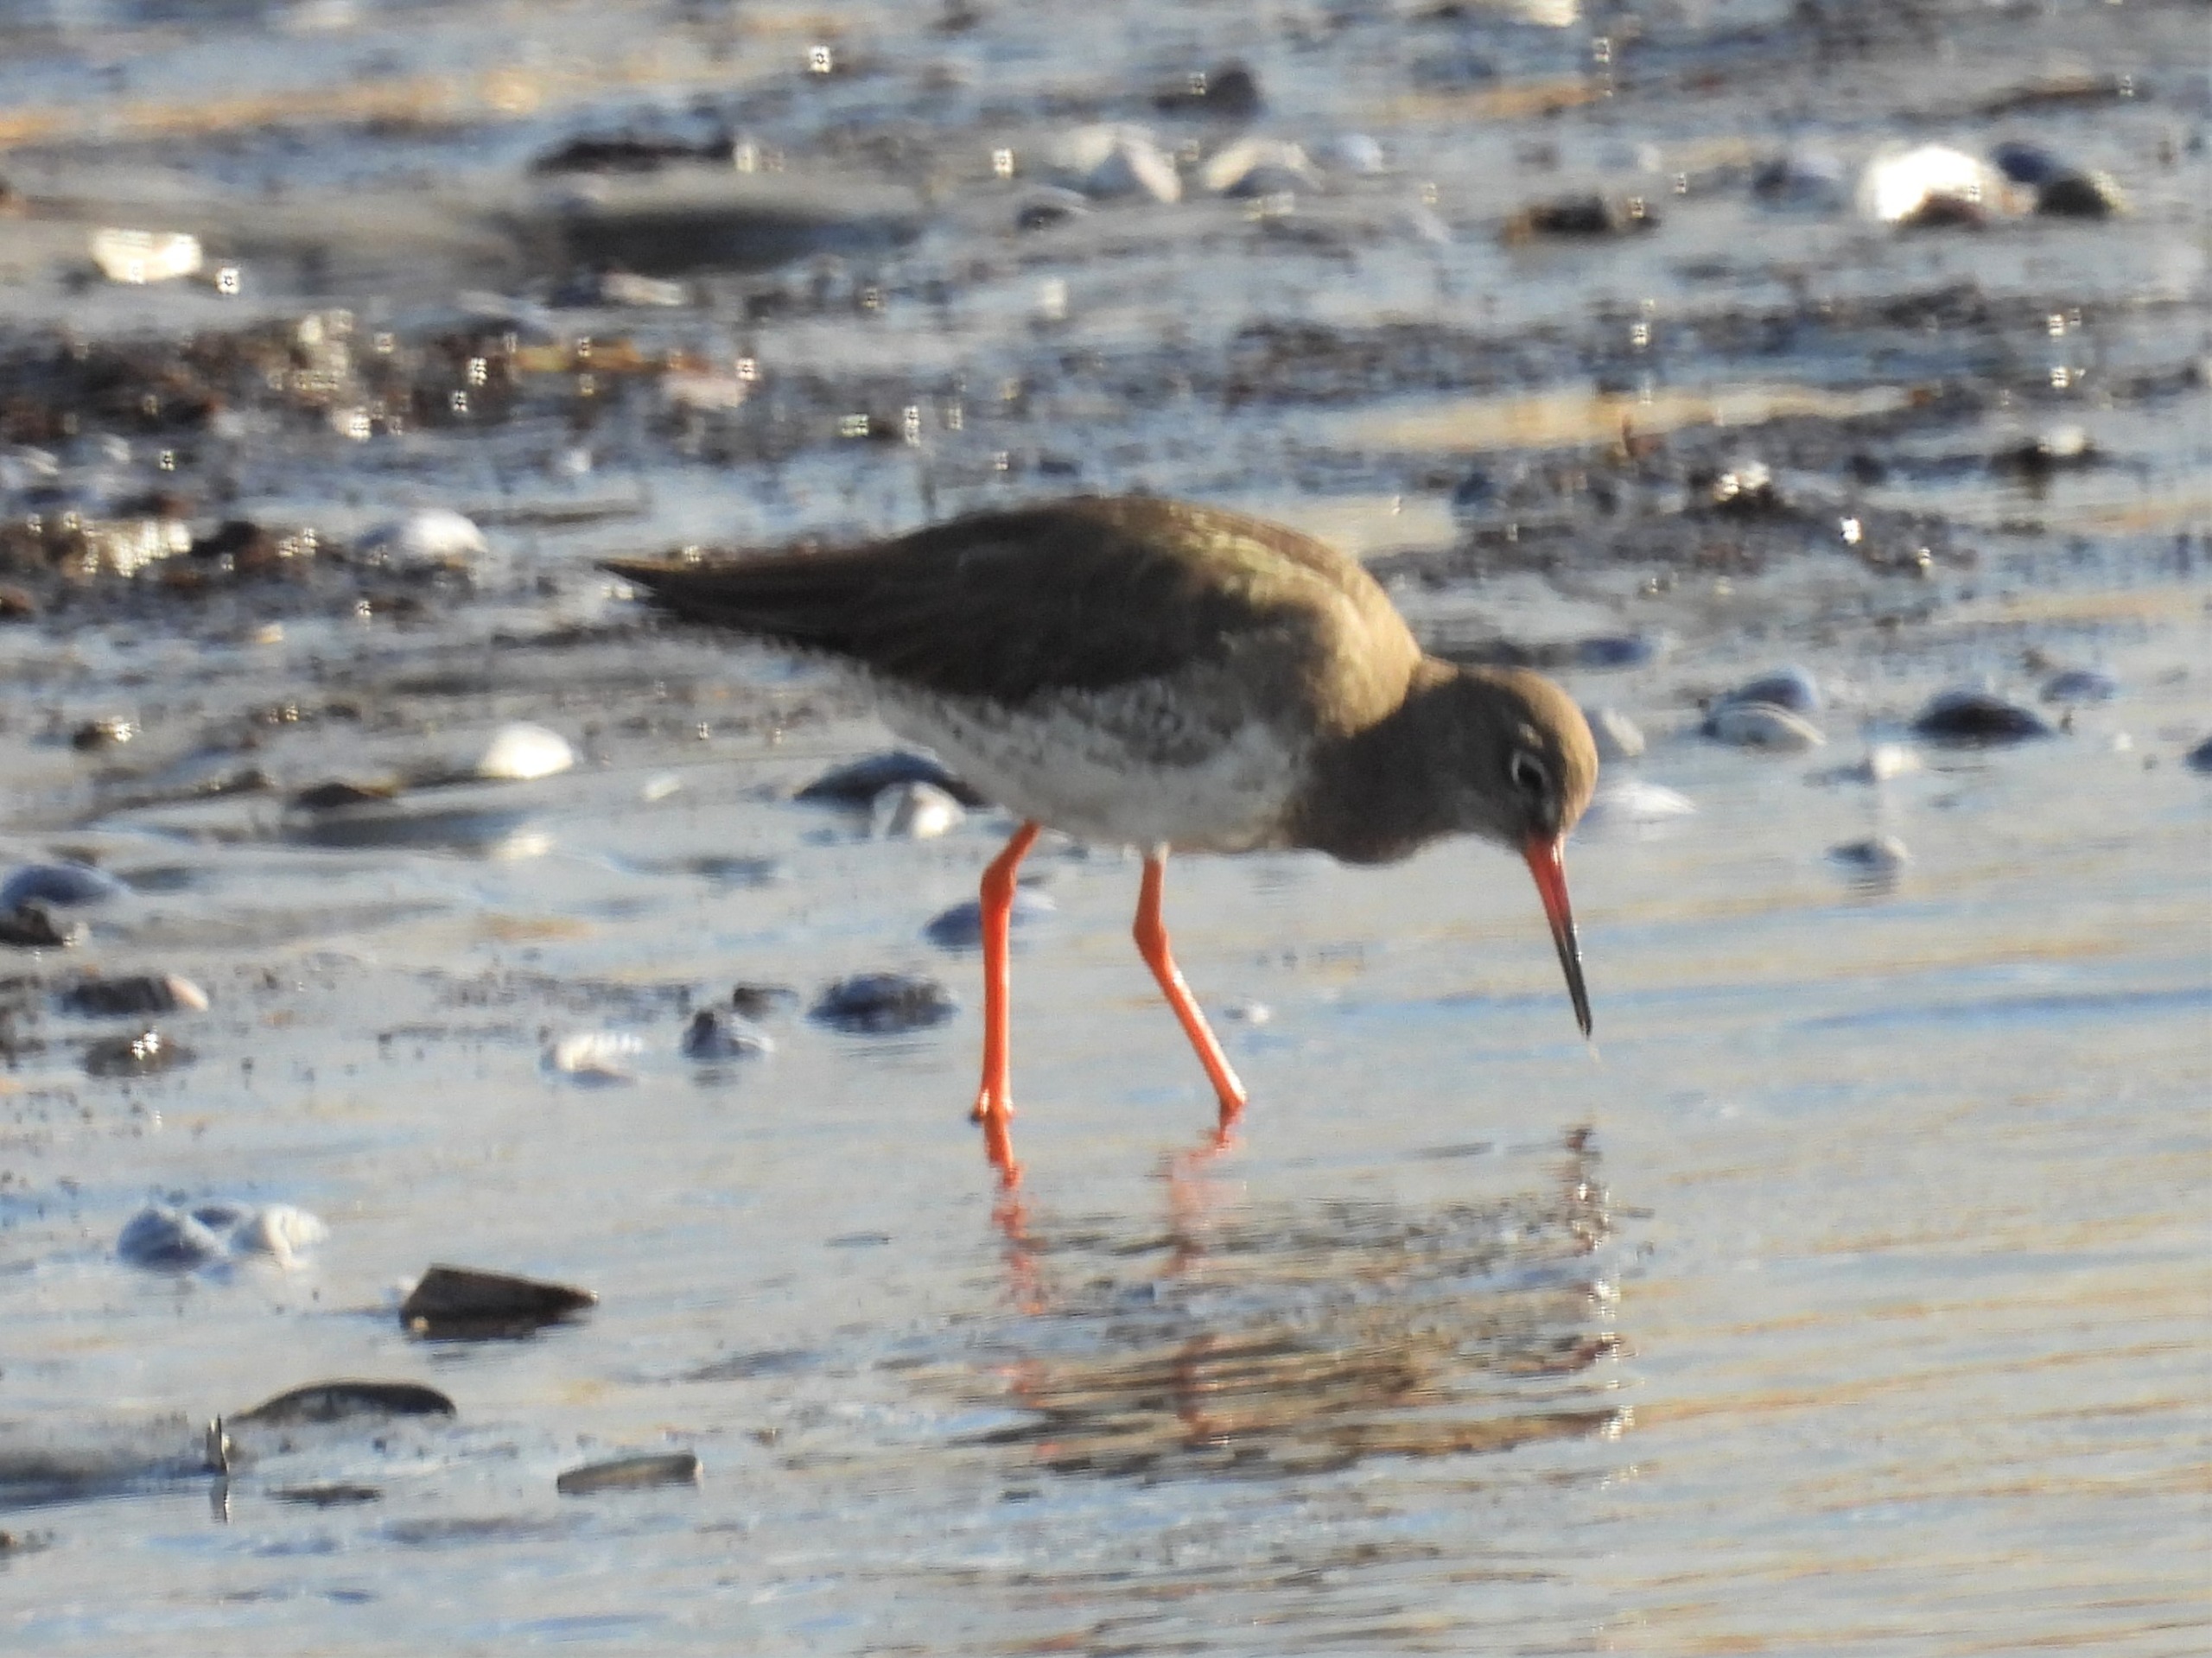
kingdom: Animalia
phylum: Chordata
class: Aves
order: Charadriiformes
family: Scolopacidae
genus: Tringa
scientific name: Tringa totanus
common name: Rødben
